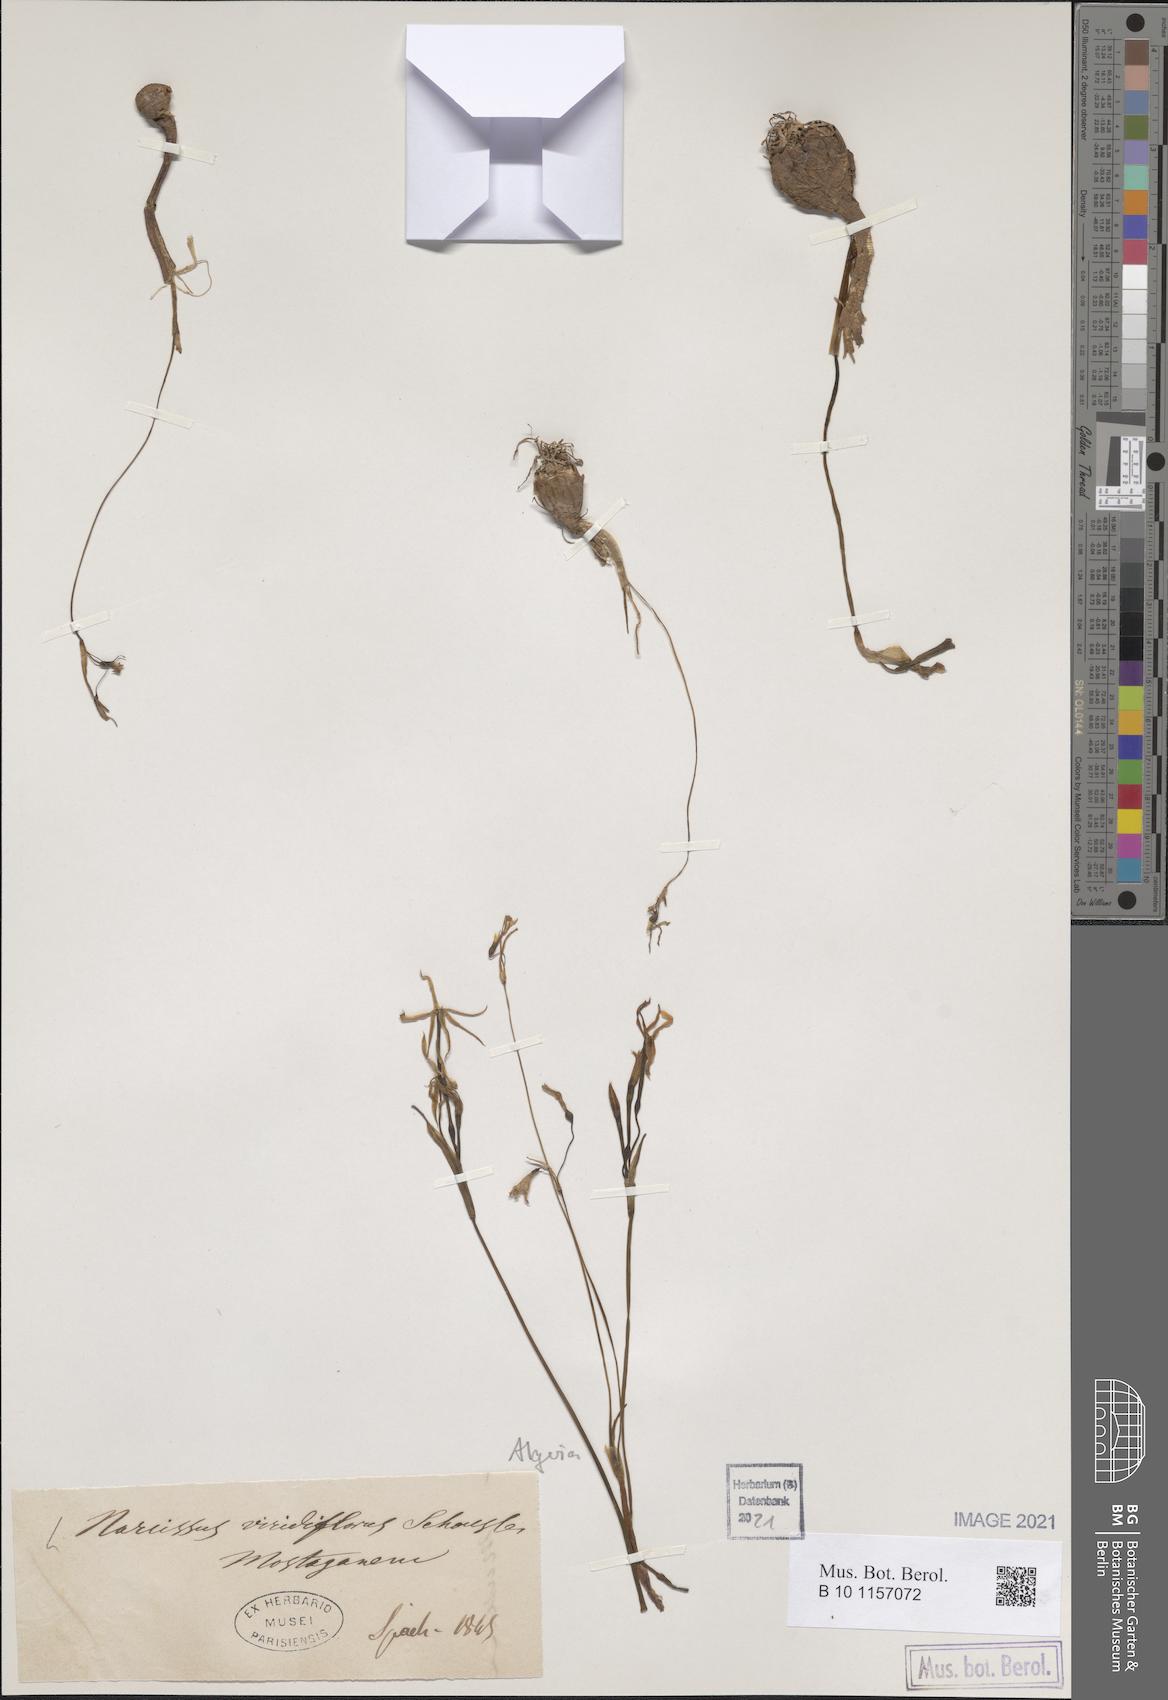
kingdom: Plantae
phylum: Tracheophyta
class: Liliopsida
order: Asparagales
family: Amaryllidaceae
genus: Narcissus
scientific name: Narcissus viridiflorus
